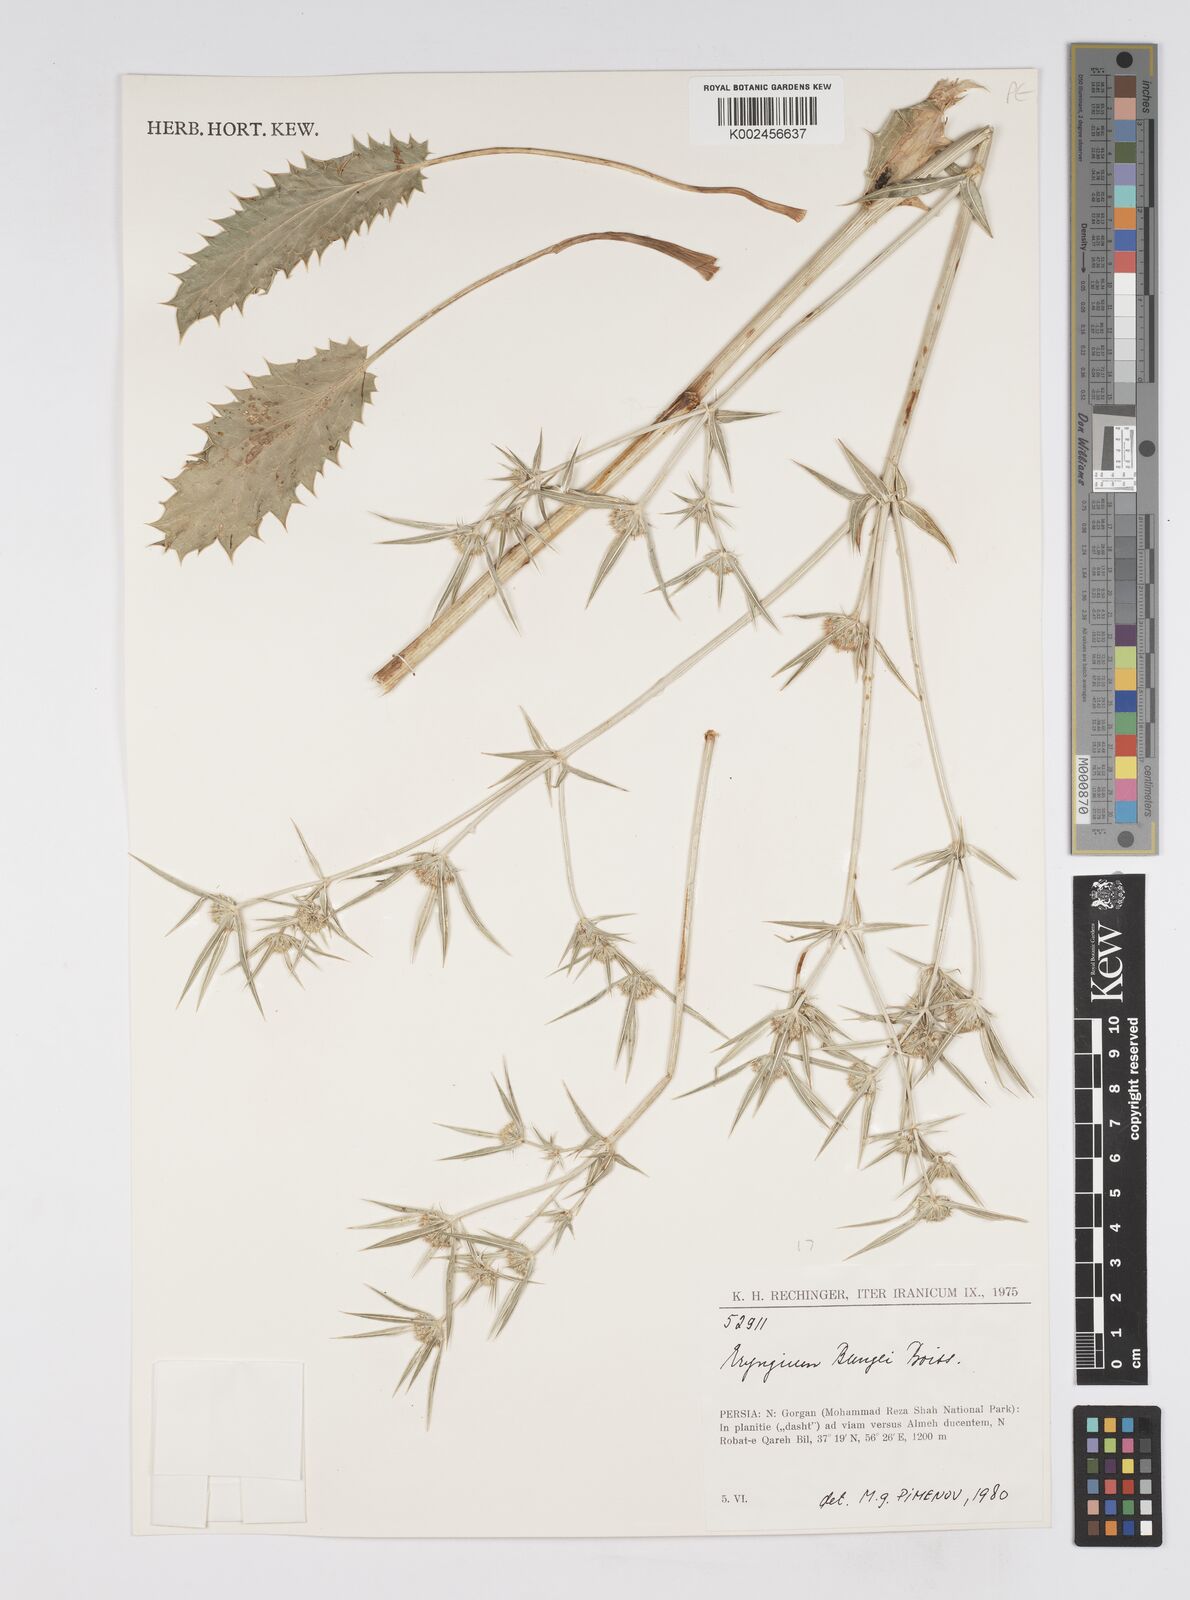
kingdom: Plantae
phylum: Tracheophyta
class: Magnoliopsida
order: Apiales
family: Apiaceae
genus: Eryngium
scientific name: Eryngium bungei
